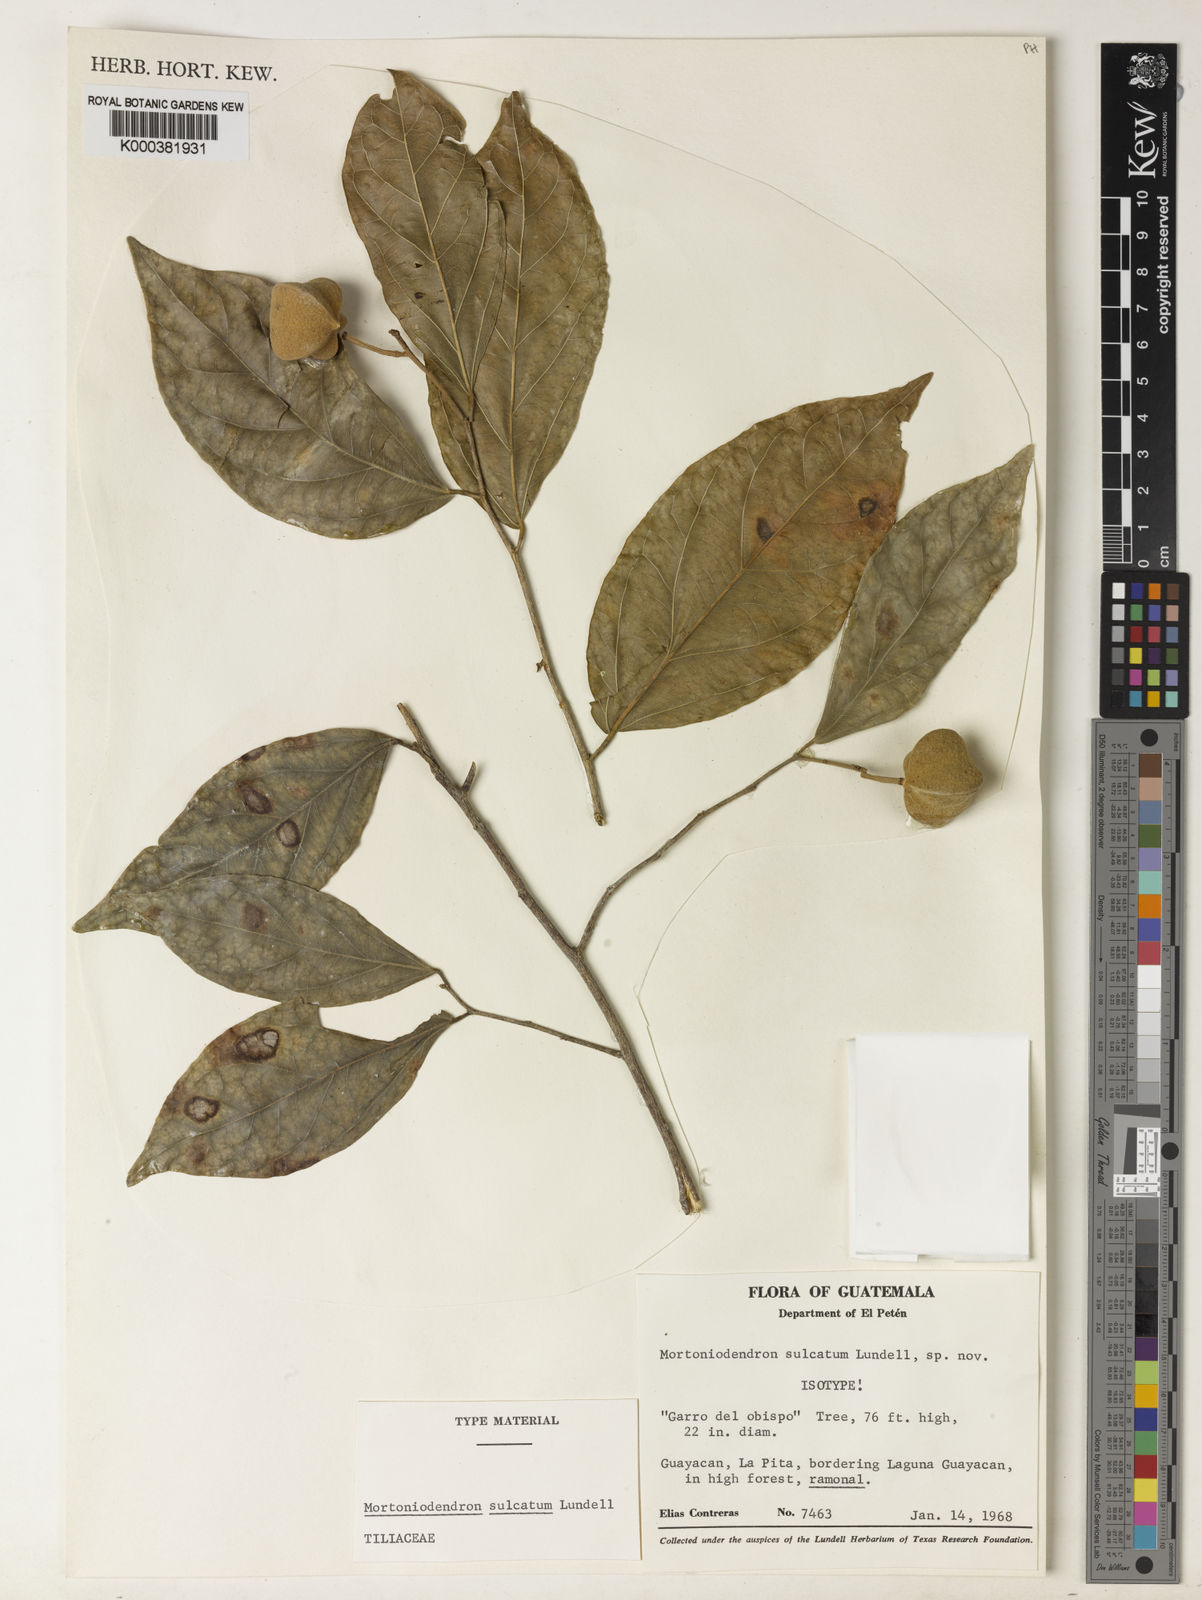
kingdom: Plantae
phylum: Tracheophyta
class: Magnoliopsida
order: Malvales
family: Malvaceae
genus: Mortoniodendron
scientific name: Mortoniodendron sulcatum
